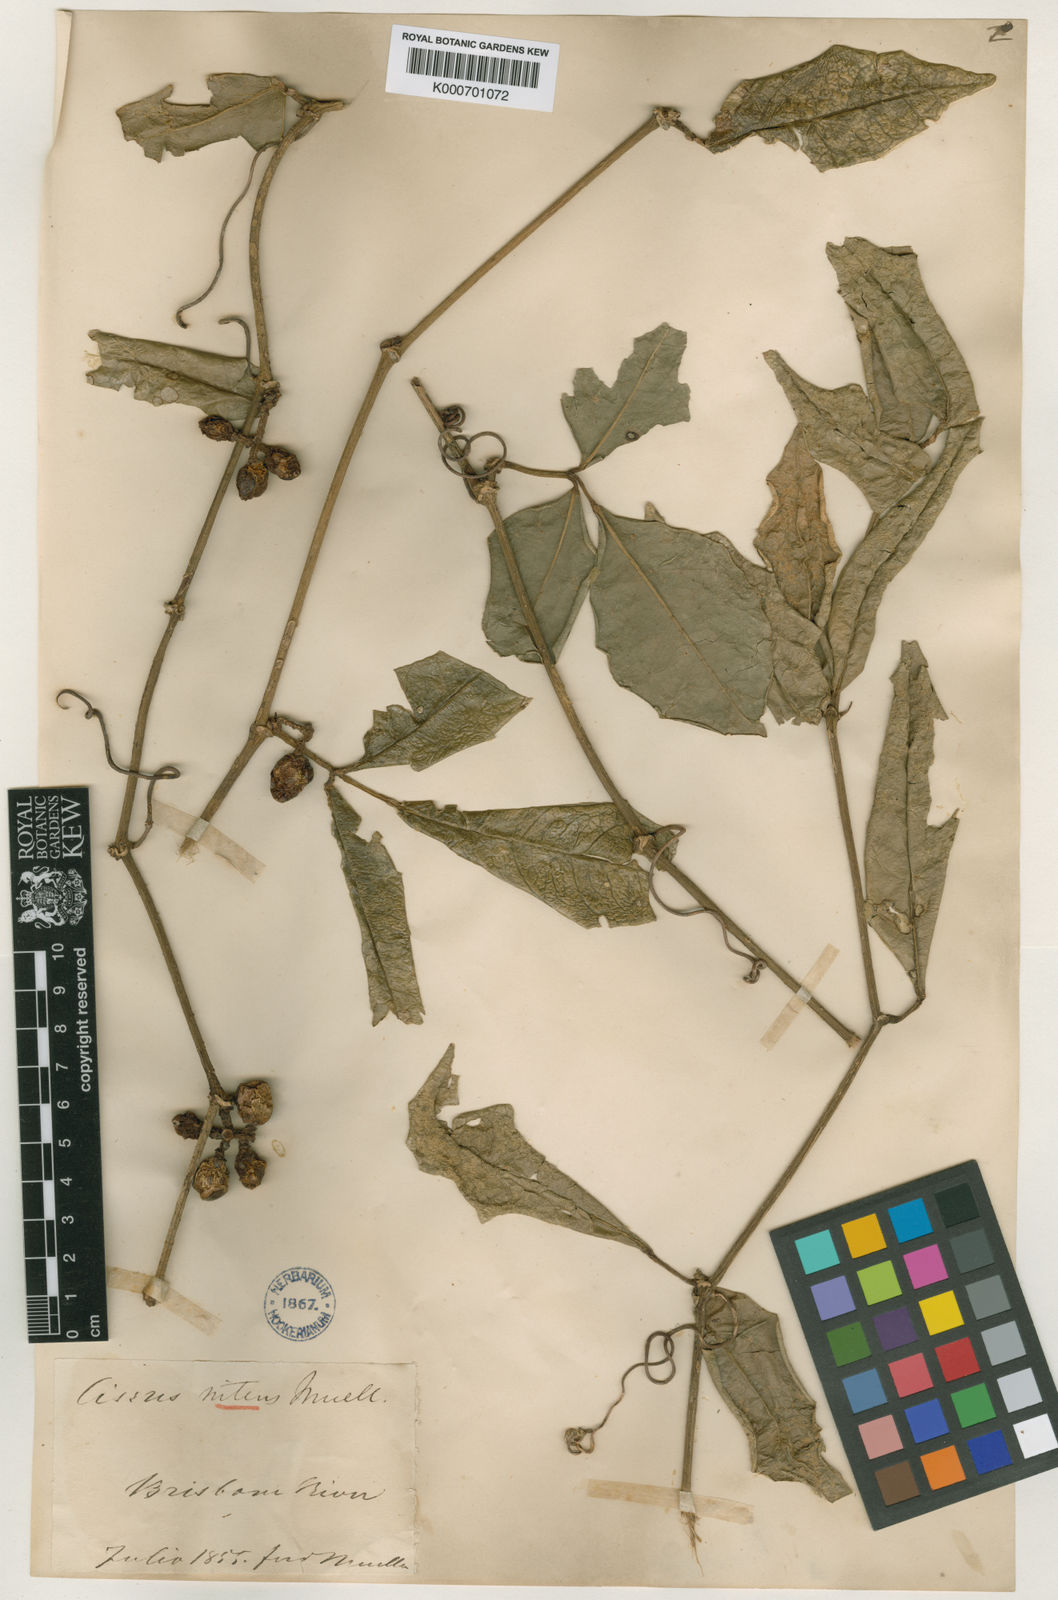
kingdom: Plantae
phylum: Tracheophyta
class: Magnoliopsida
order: Vitales
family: Vitaceae
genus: Tetrastigma
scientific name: Tetrastigma nitens
